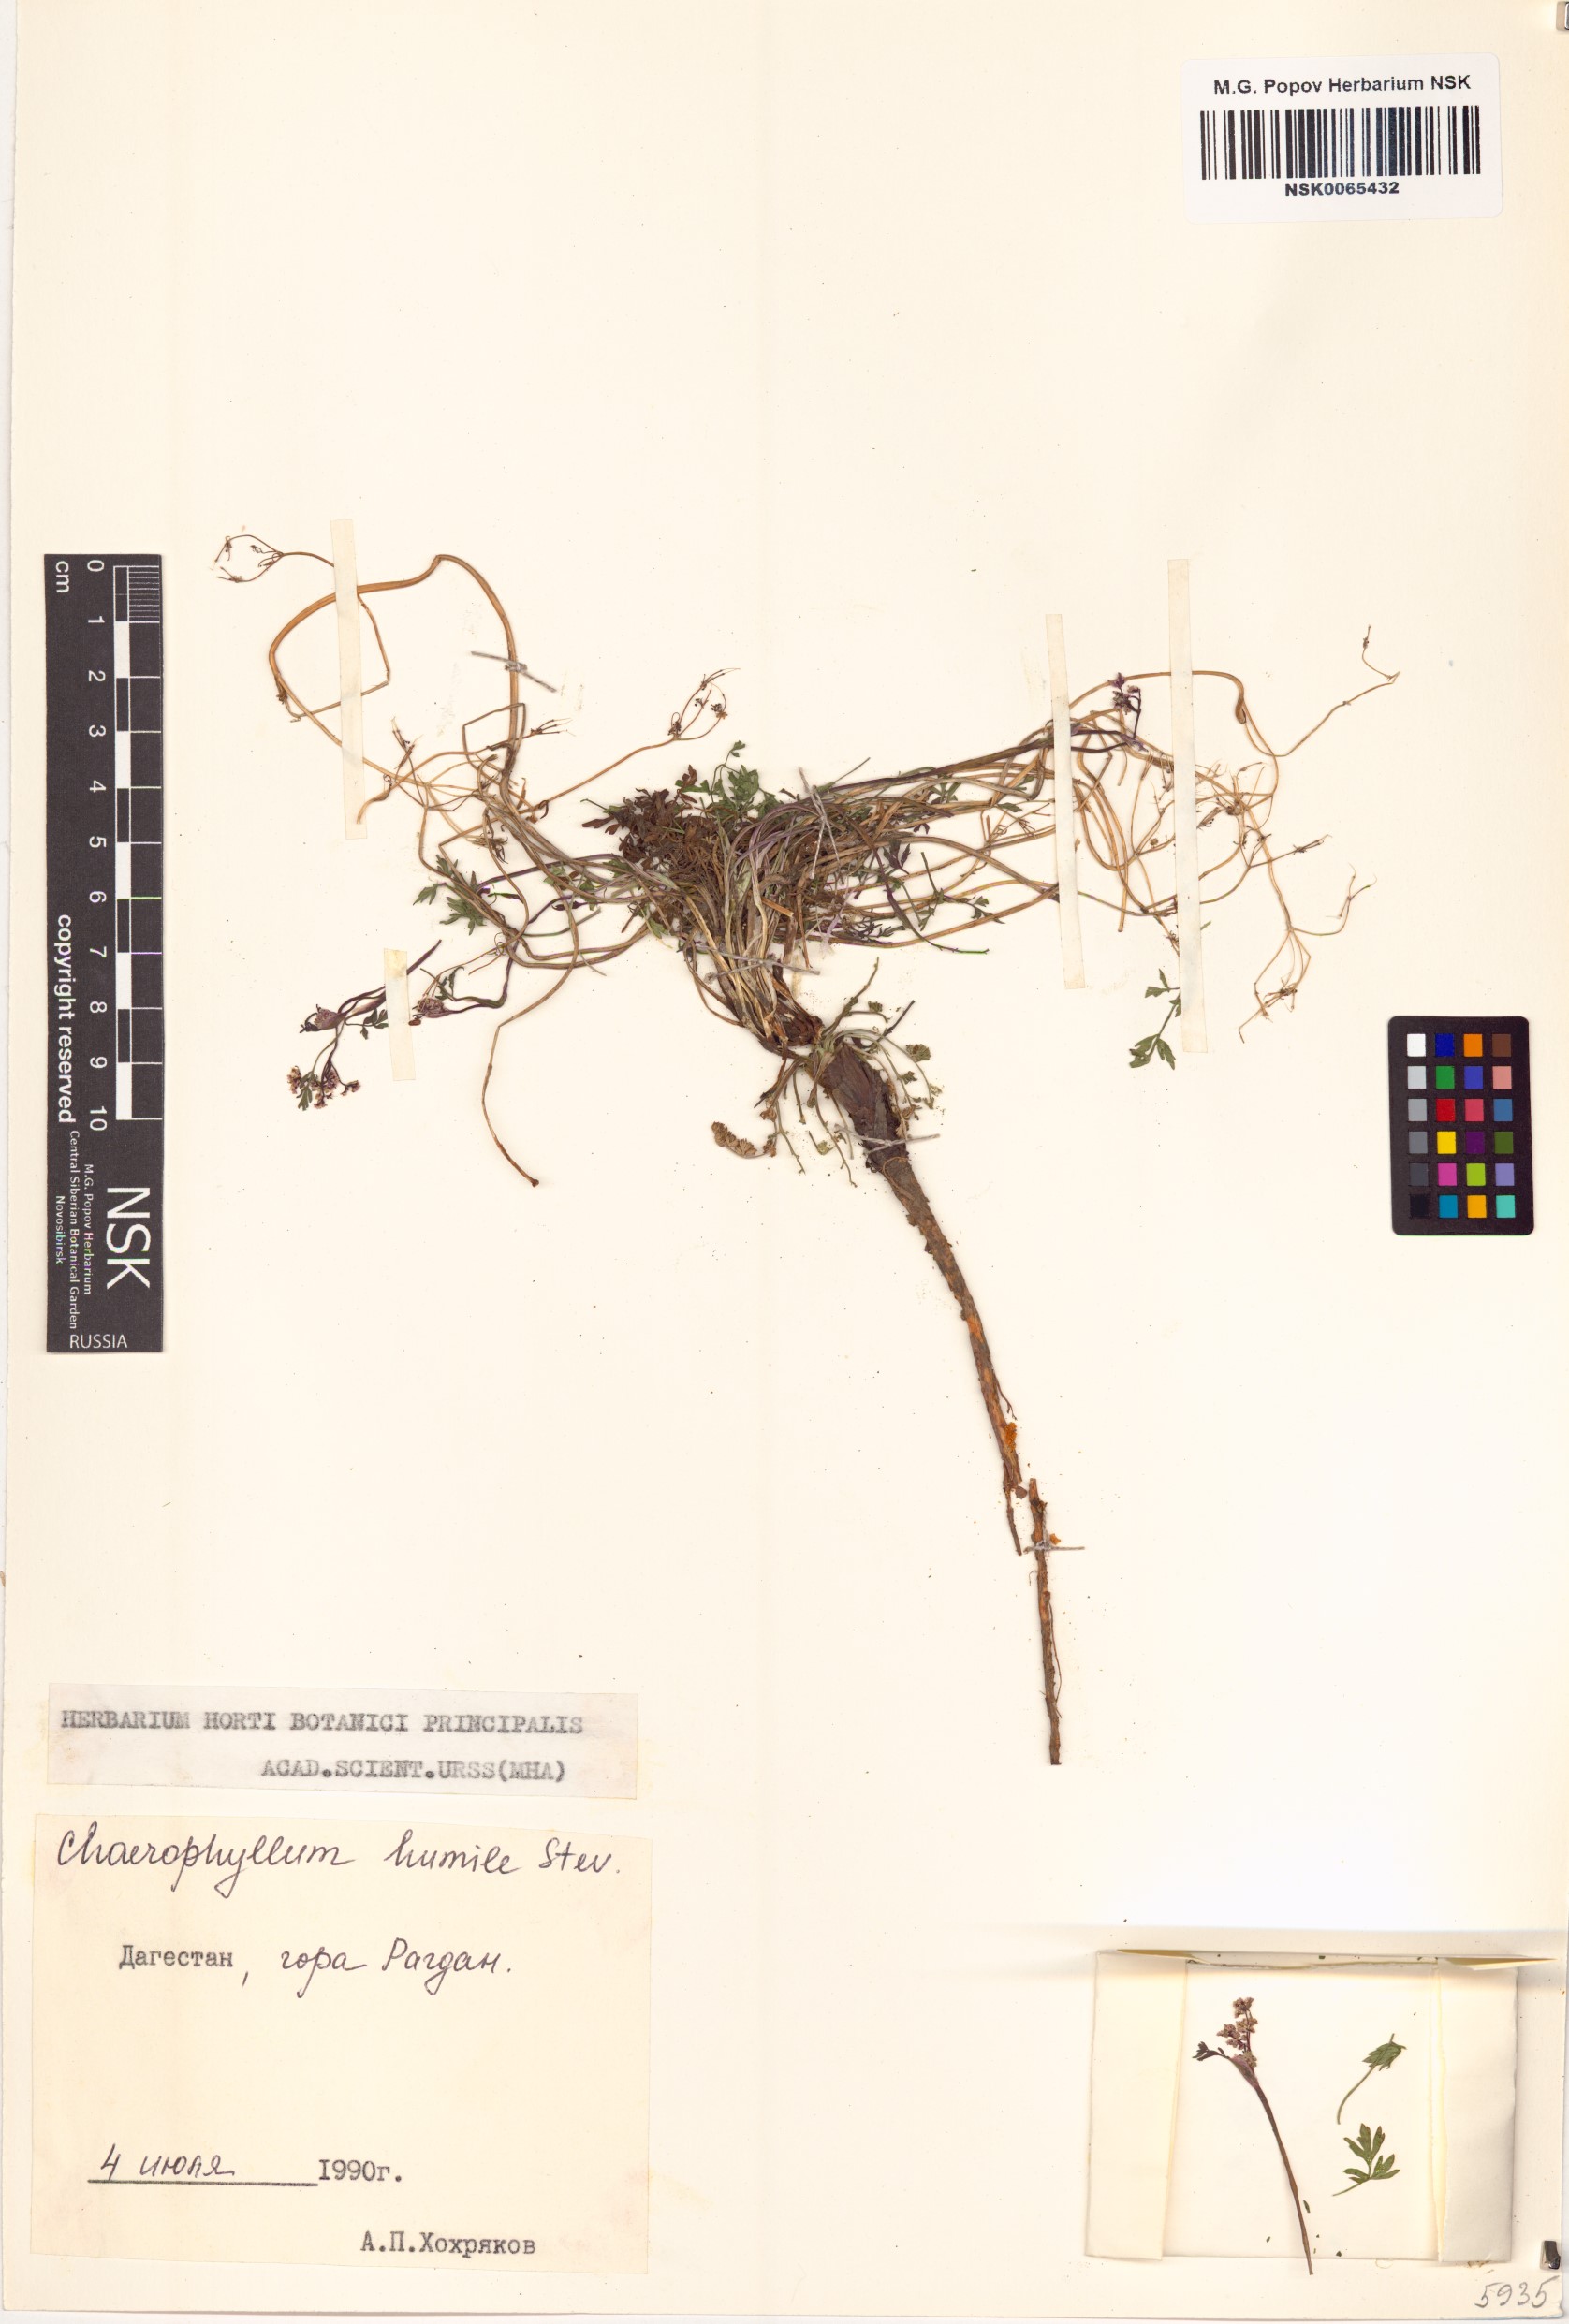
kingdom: Plantae
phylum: Tracheophyta
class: Magnoliopsida
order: Apiales
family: Apiaceae
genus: Chaerophyllum
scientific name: Chaerophyllum humile
